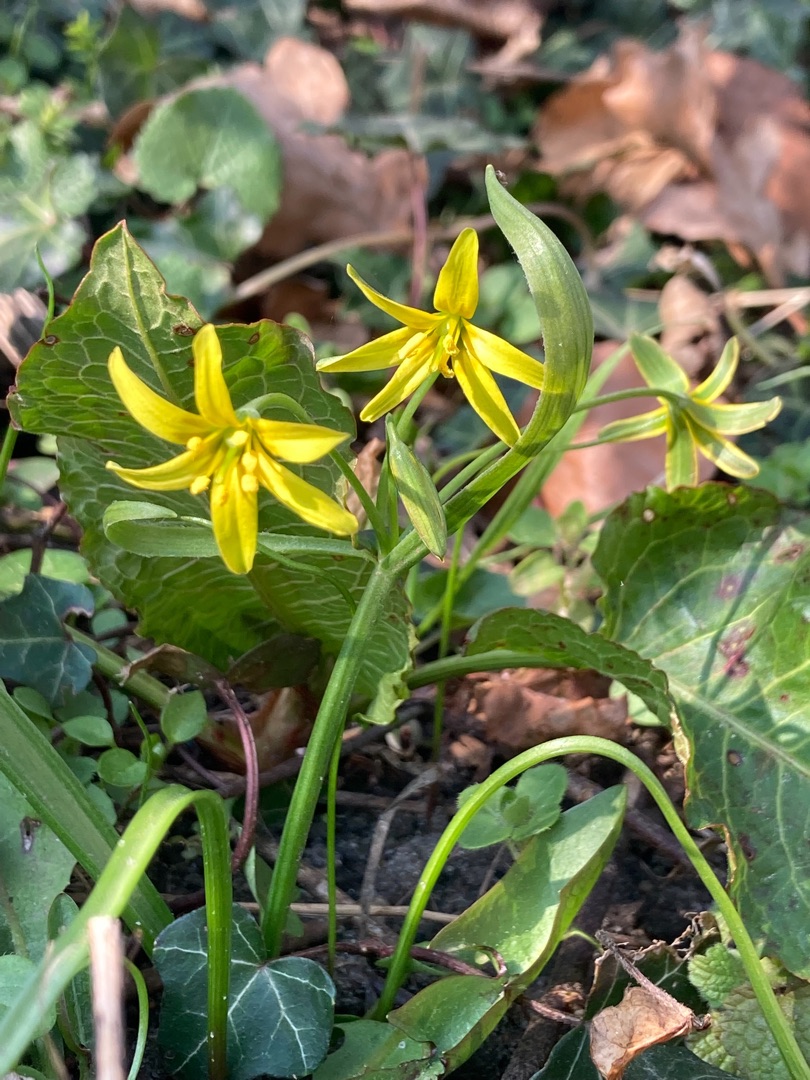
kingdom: Plantae
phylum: Tracheophyta
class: Liliopsida
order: Liliales
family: Liliaceae
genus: Gagea
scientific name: Gagea lutea
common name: Almindelig guldstjerne
